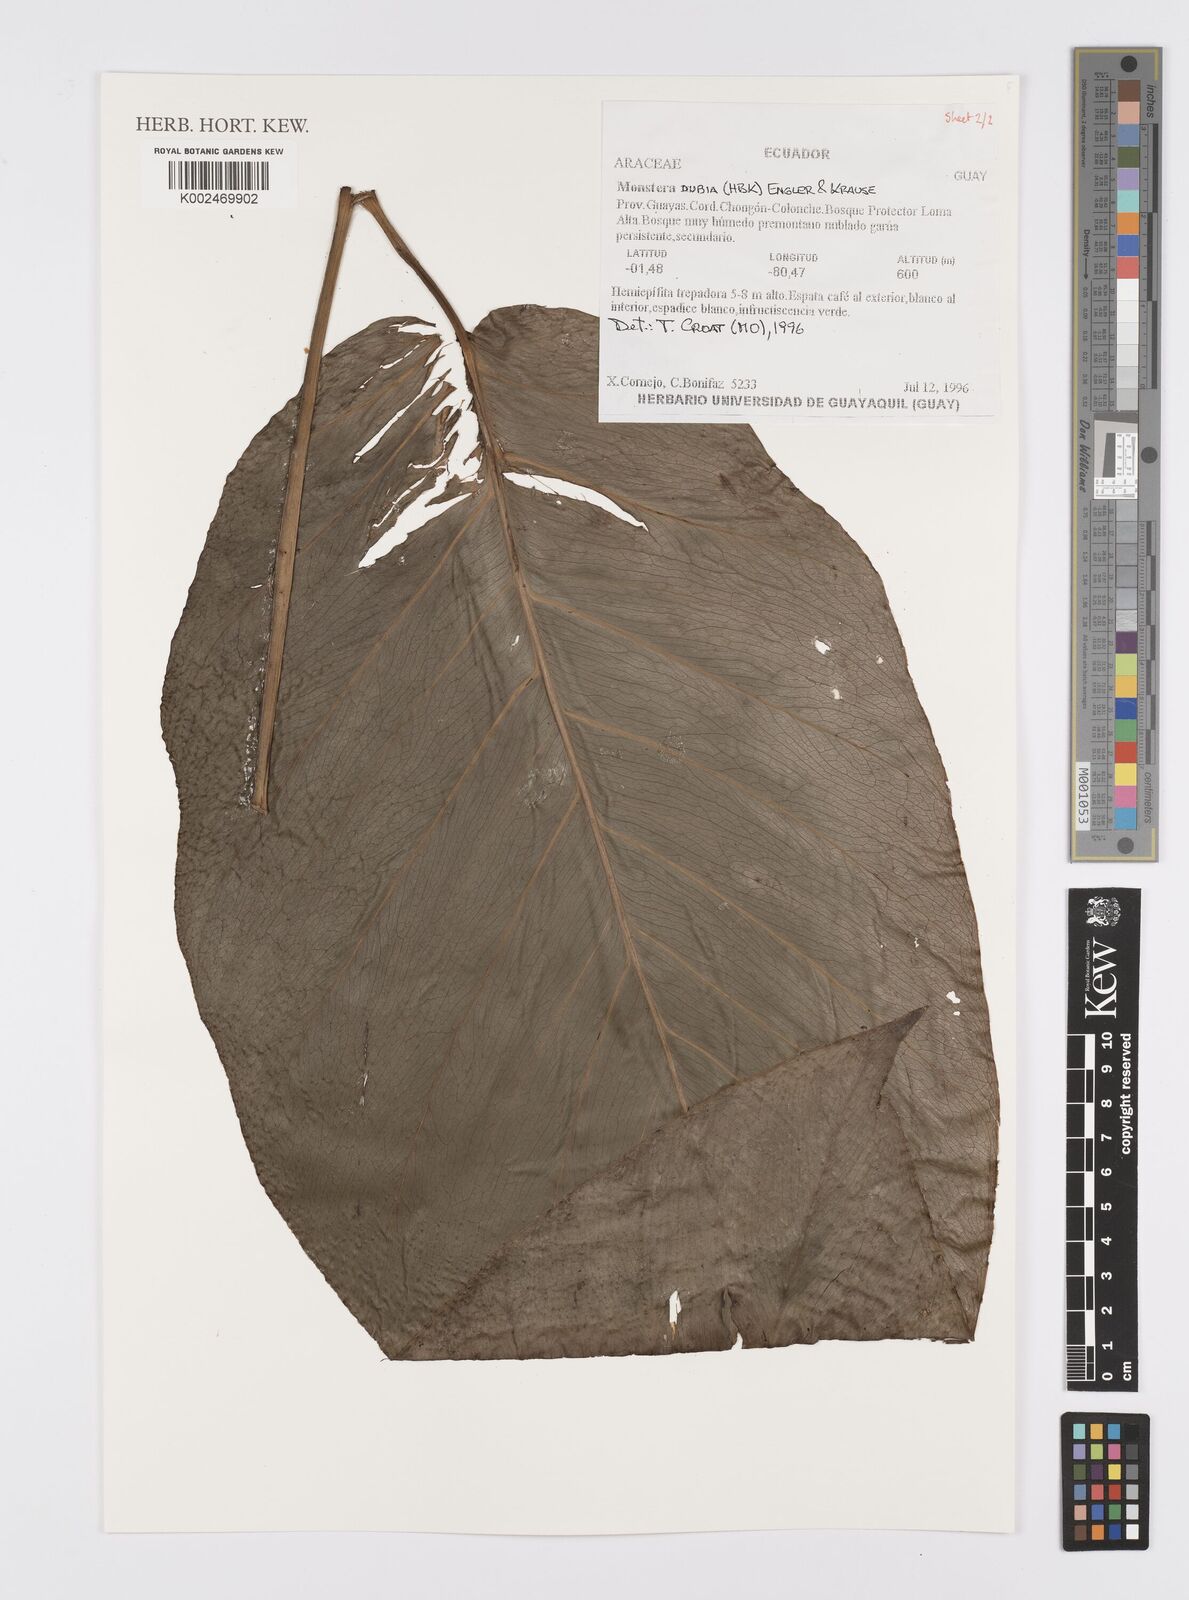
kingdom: Plantae
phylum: Tracheophyta
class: Liliopsida
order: Alismatales
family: Araceae
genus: Monstera
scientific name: Monstera dubia
